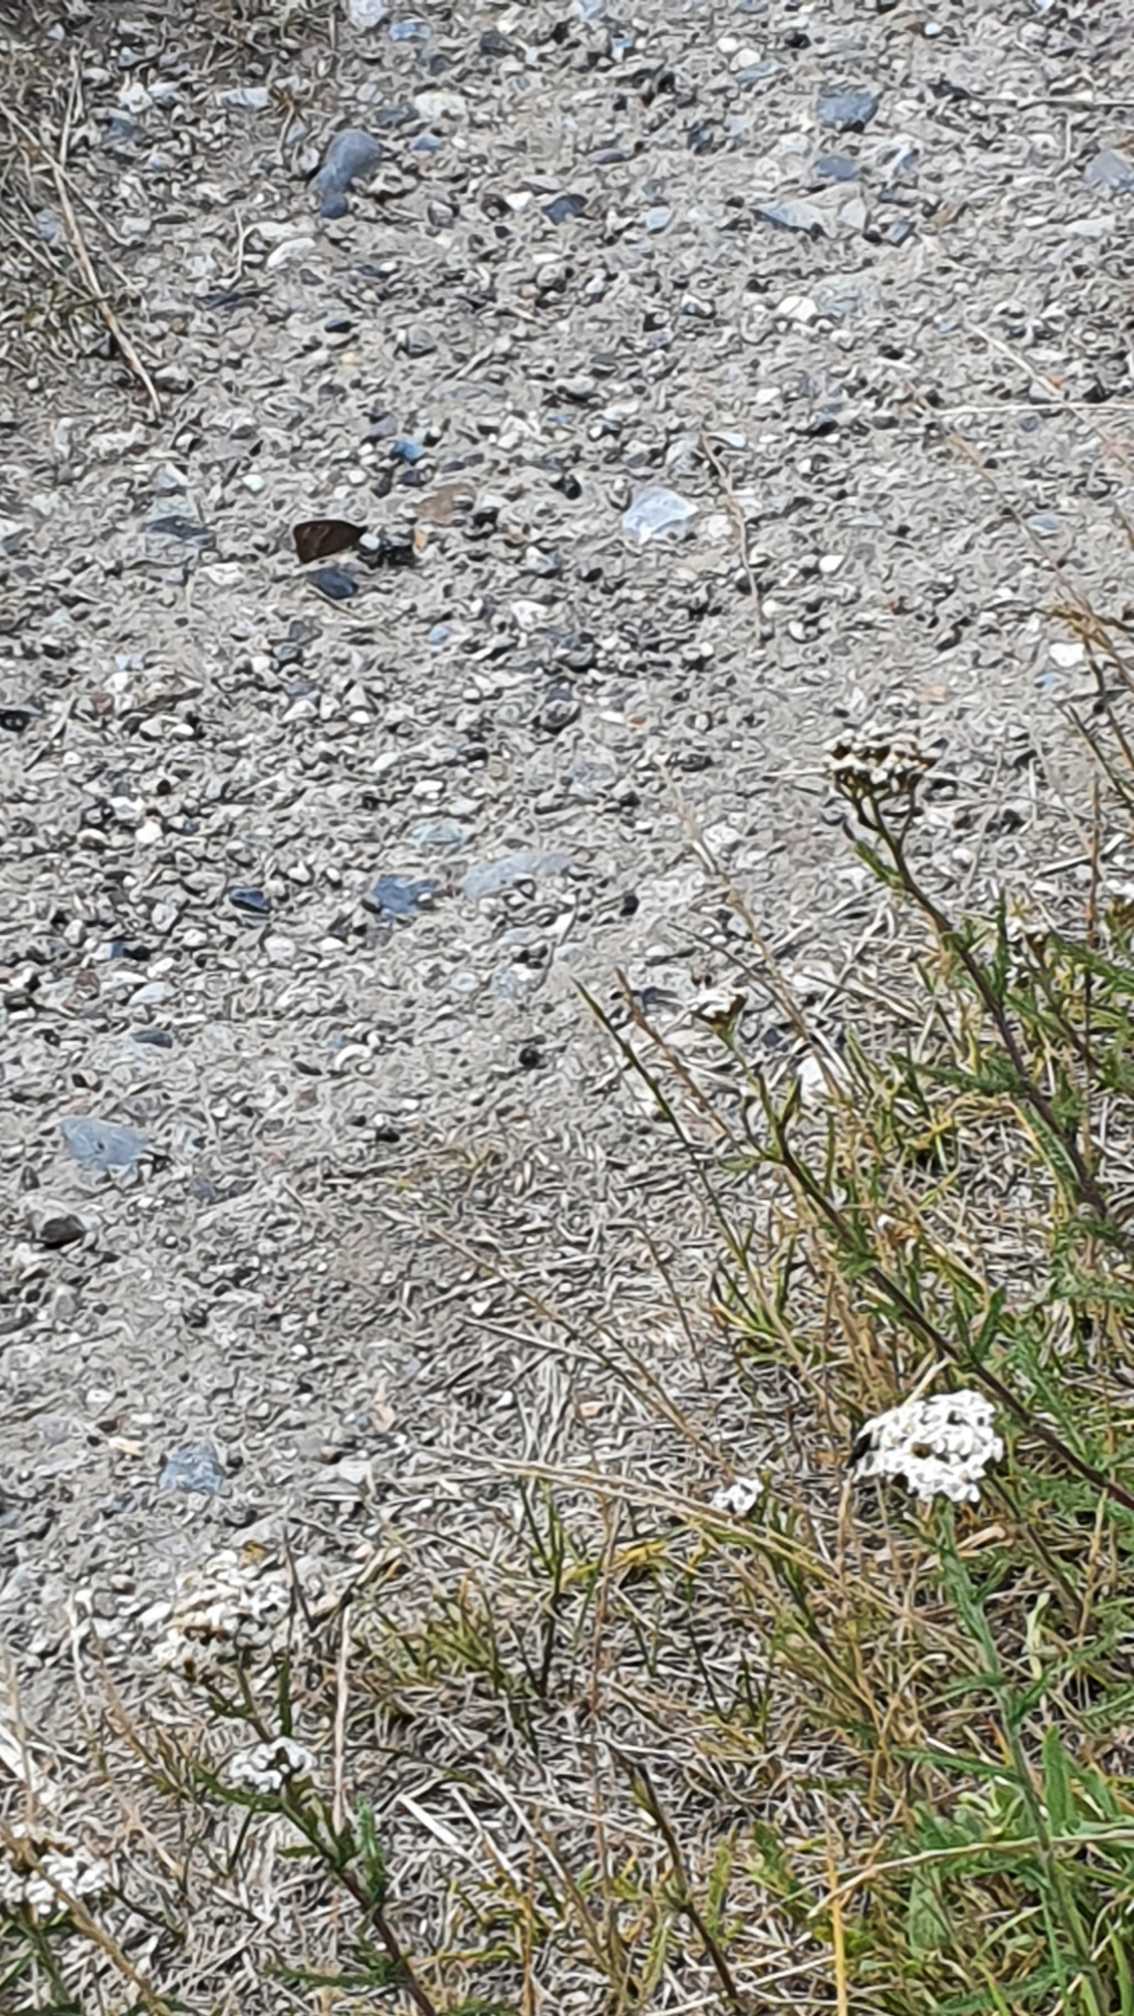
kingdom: Animalia
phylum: Arthropoda
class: Insecta
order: Lepidoptera
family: Nymphalidae
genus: Maniola
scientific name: Maniola jurtina
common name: Græsrandøje
